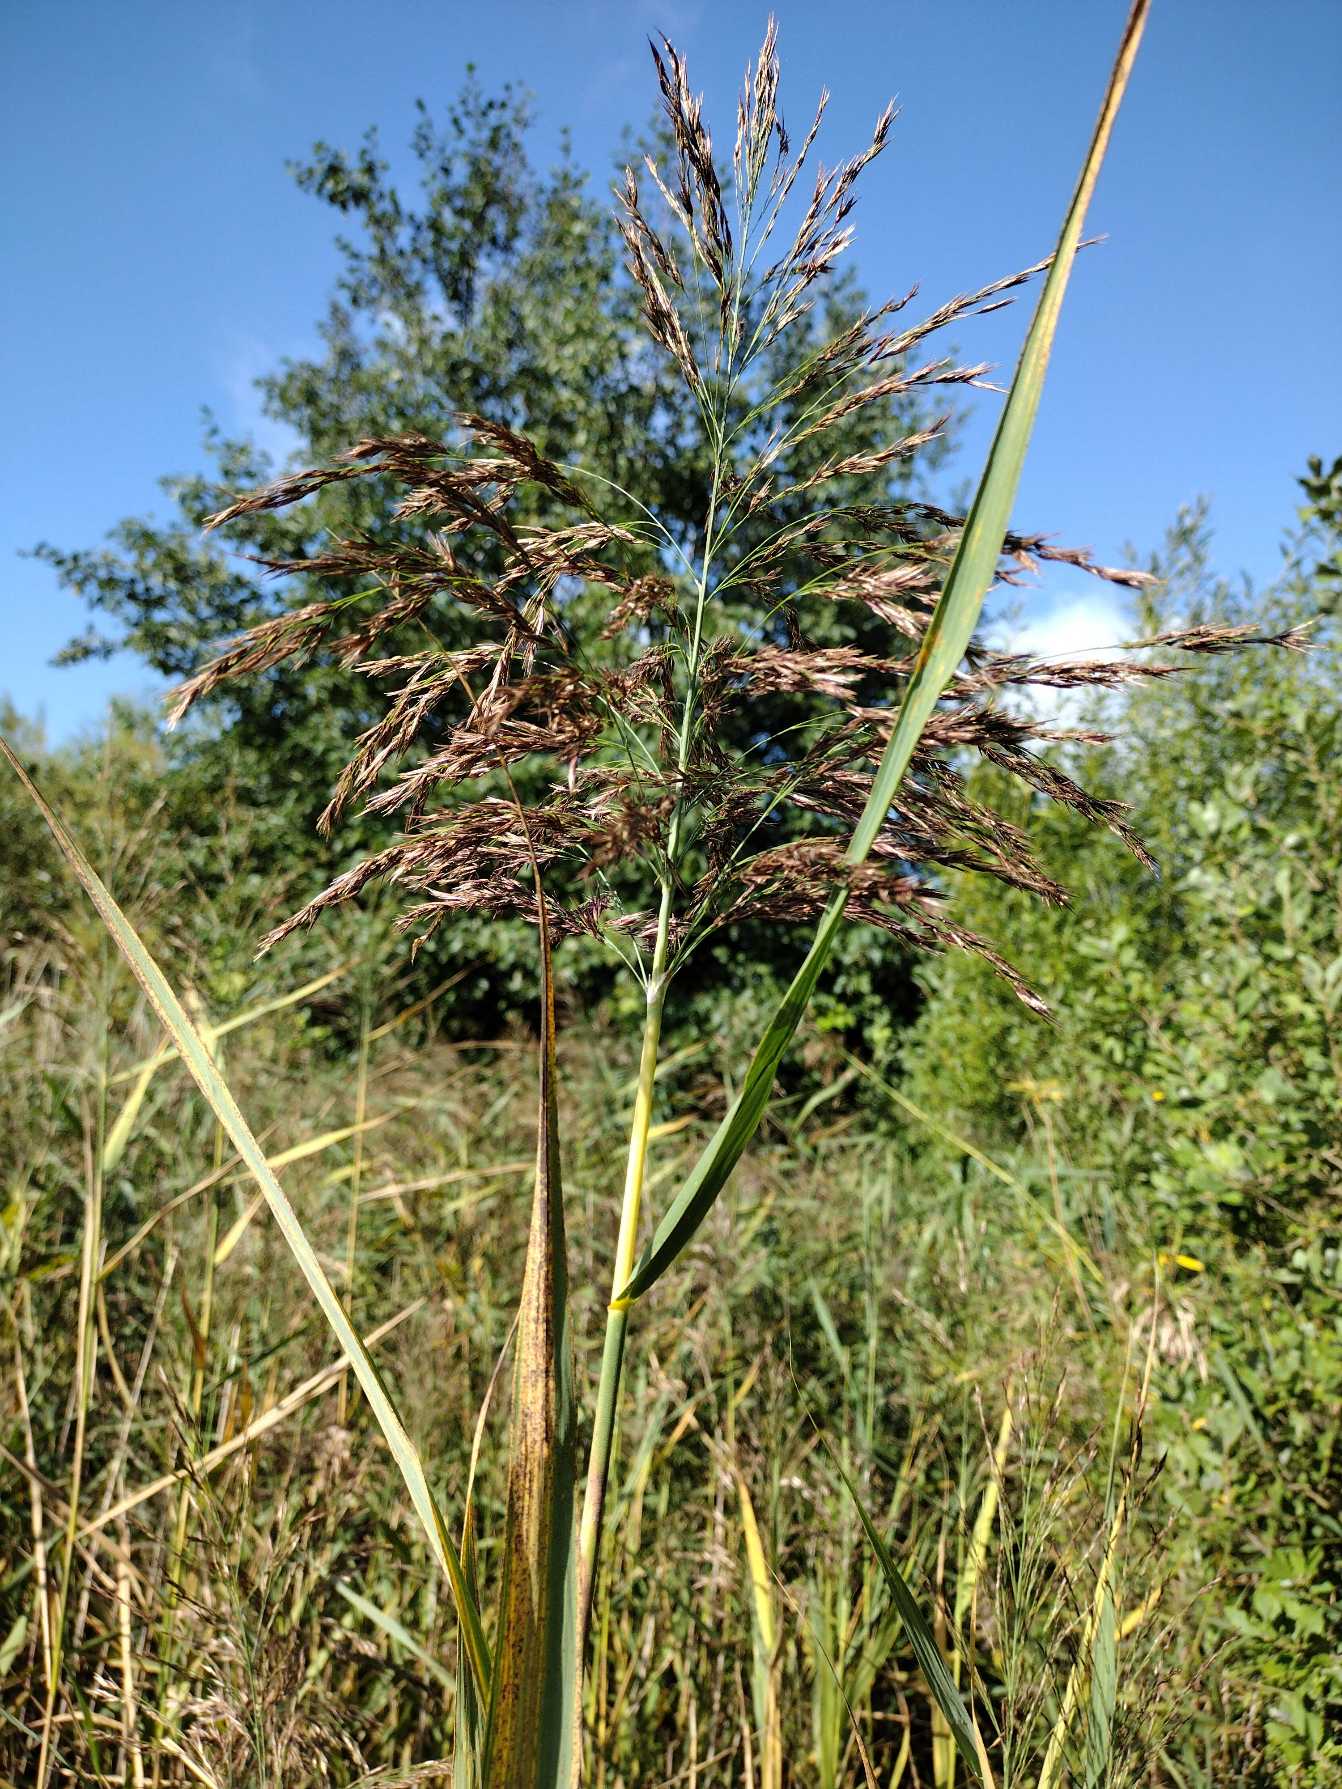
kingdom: Plantae
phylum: Tracheophyta
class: Liliopsida
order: Poales
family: Poaceae
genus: Phragmites
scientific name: Phragmites australis
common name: Tagrør
